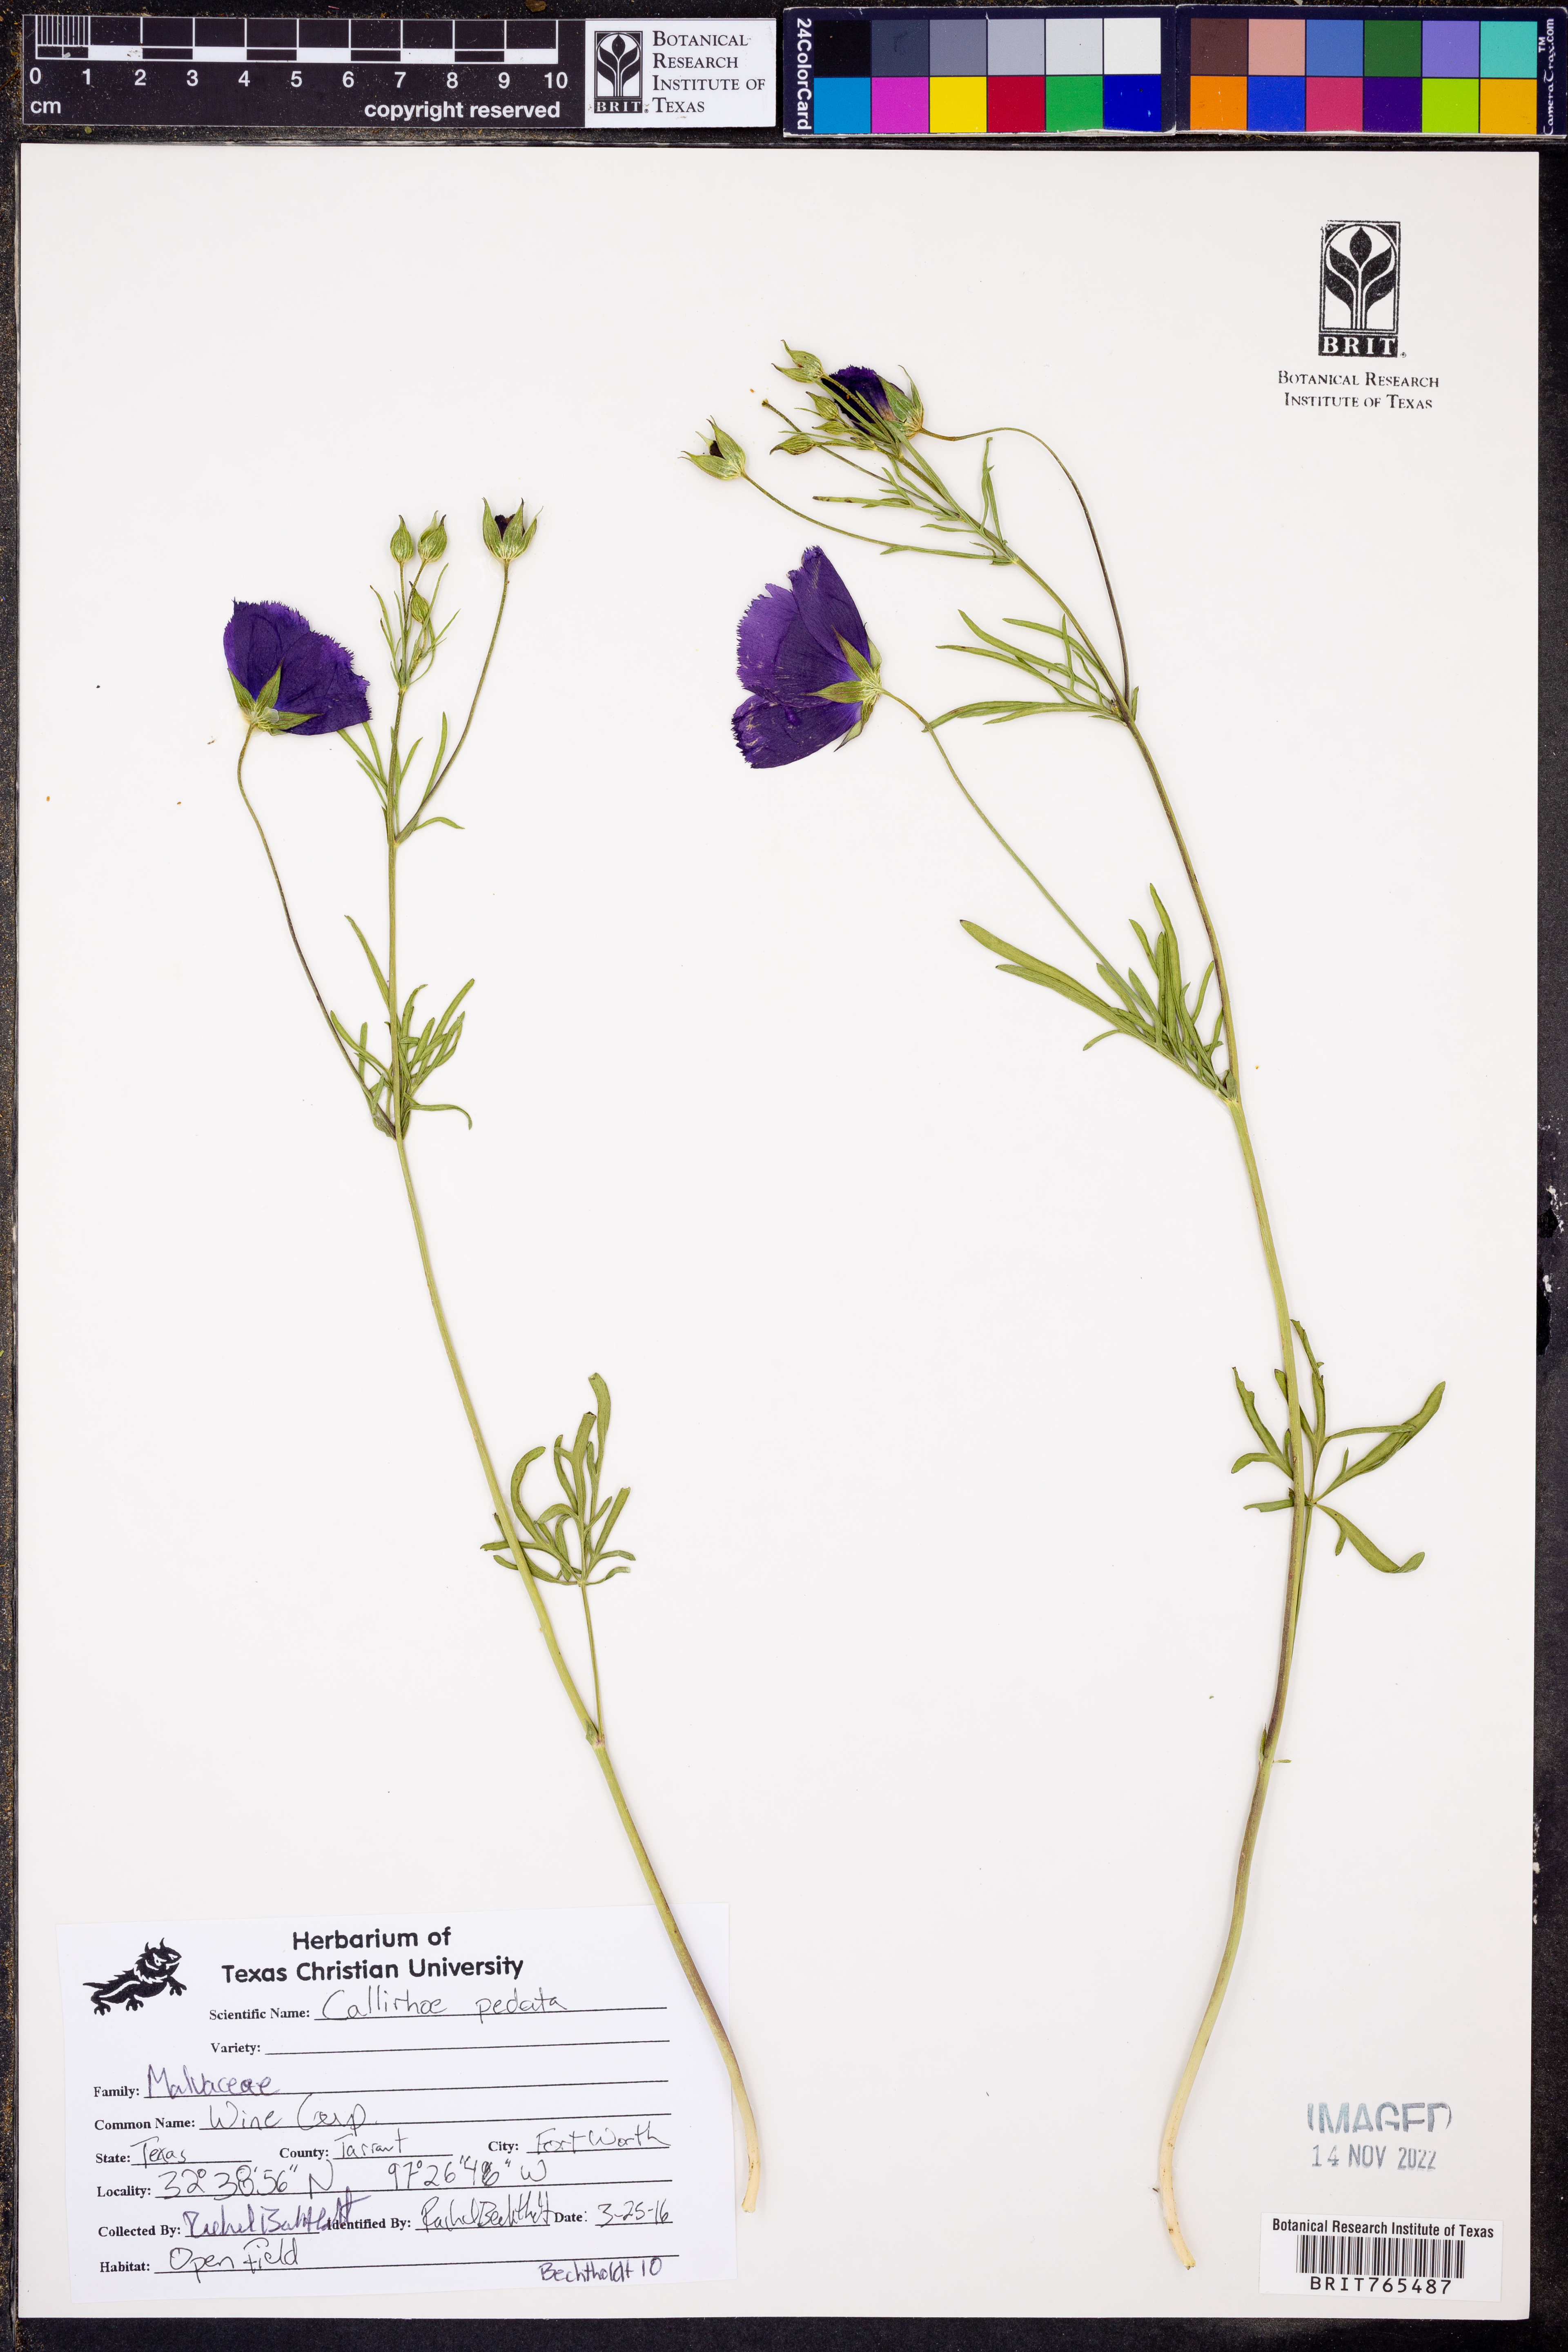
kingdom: Plantae
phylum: Tracheophyta
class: Magnoliopsida
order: Malvales
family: Malvaceae
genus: Callirhoe
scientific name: Callirhoe pedata
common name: Finger poppy-mallow
